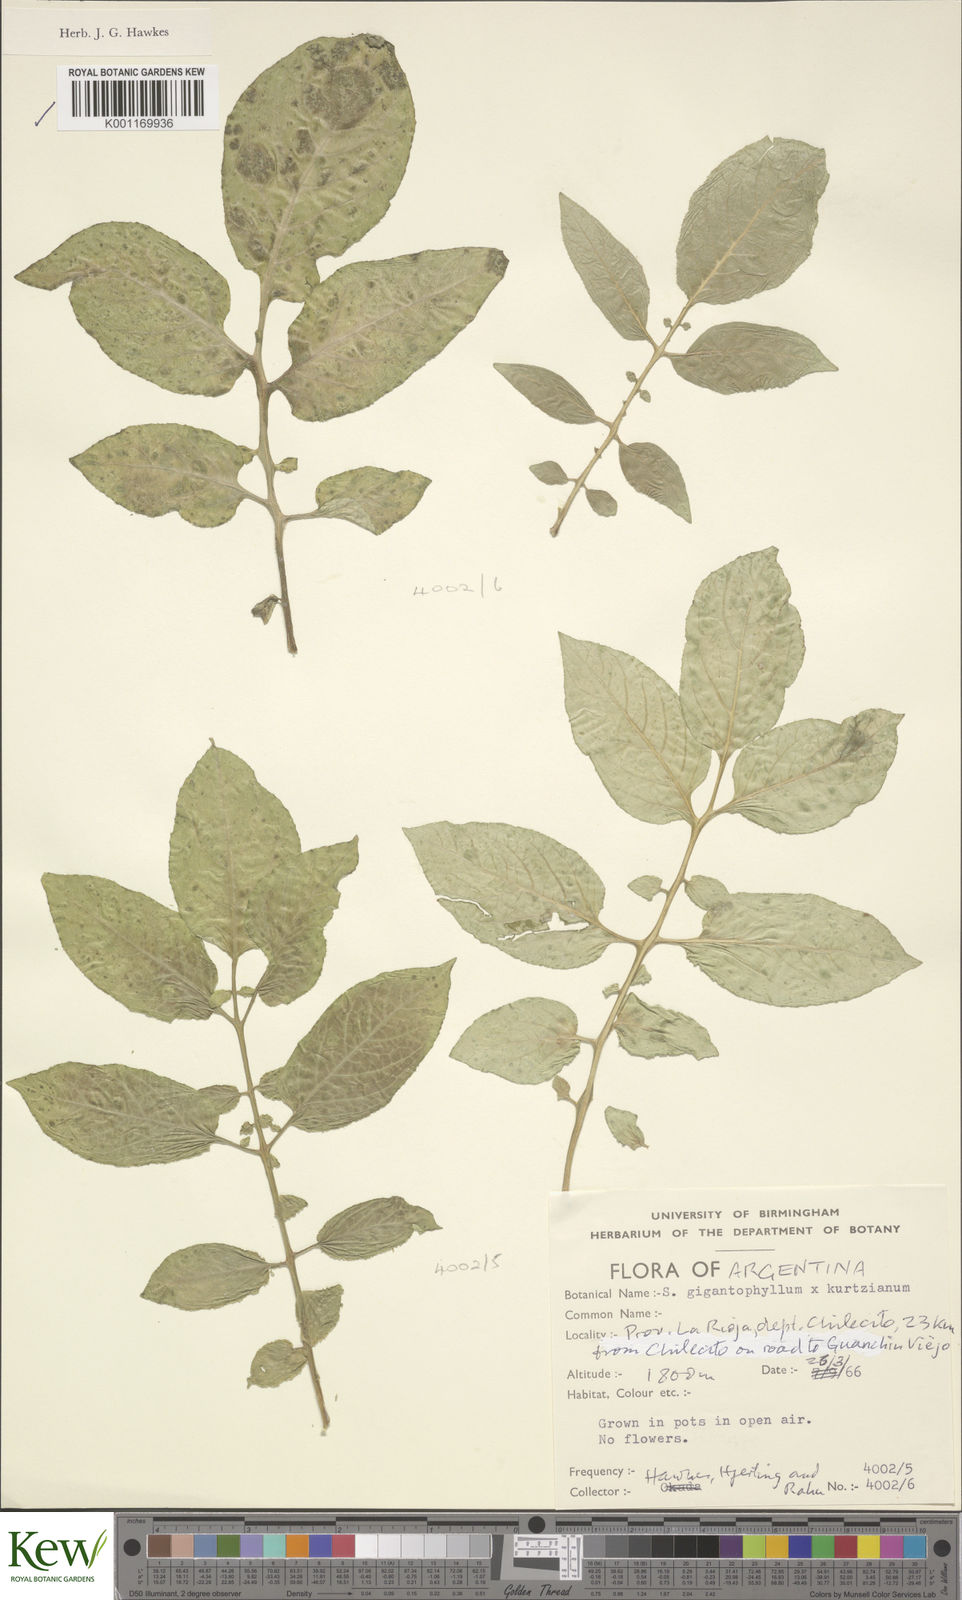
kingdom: Plantae
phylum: Tracheophyta
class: Magnoliopsida
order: Solanales
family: Solanaceae
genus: Solanum
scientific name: Solanum rechei
